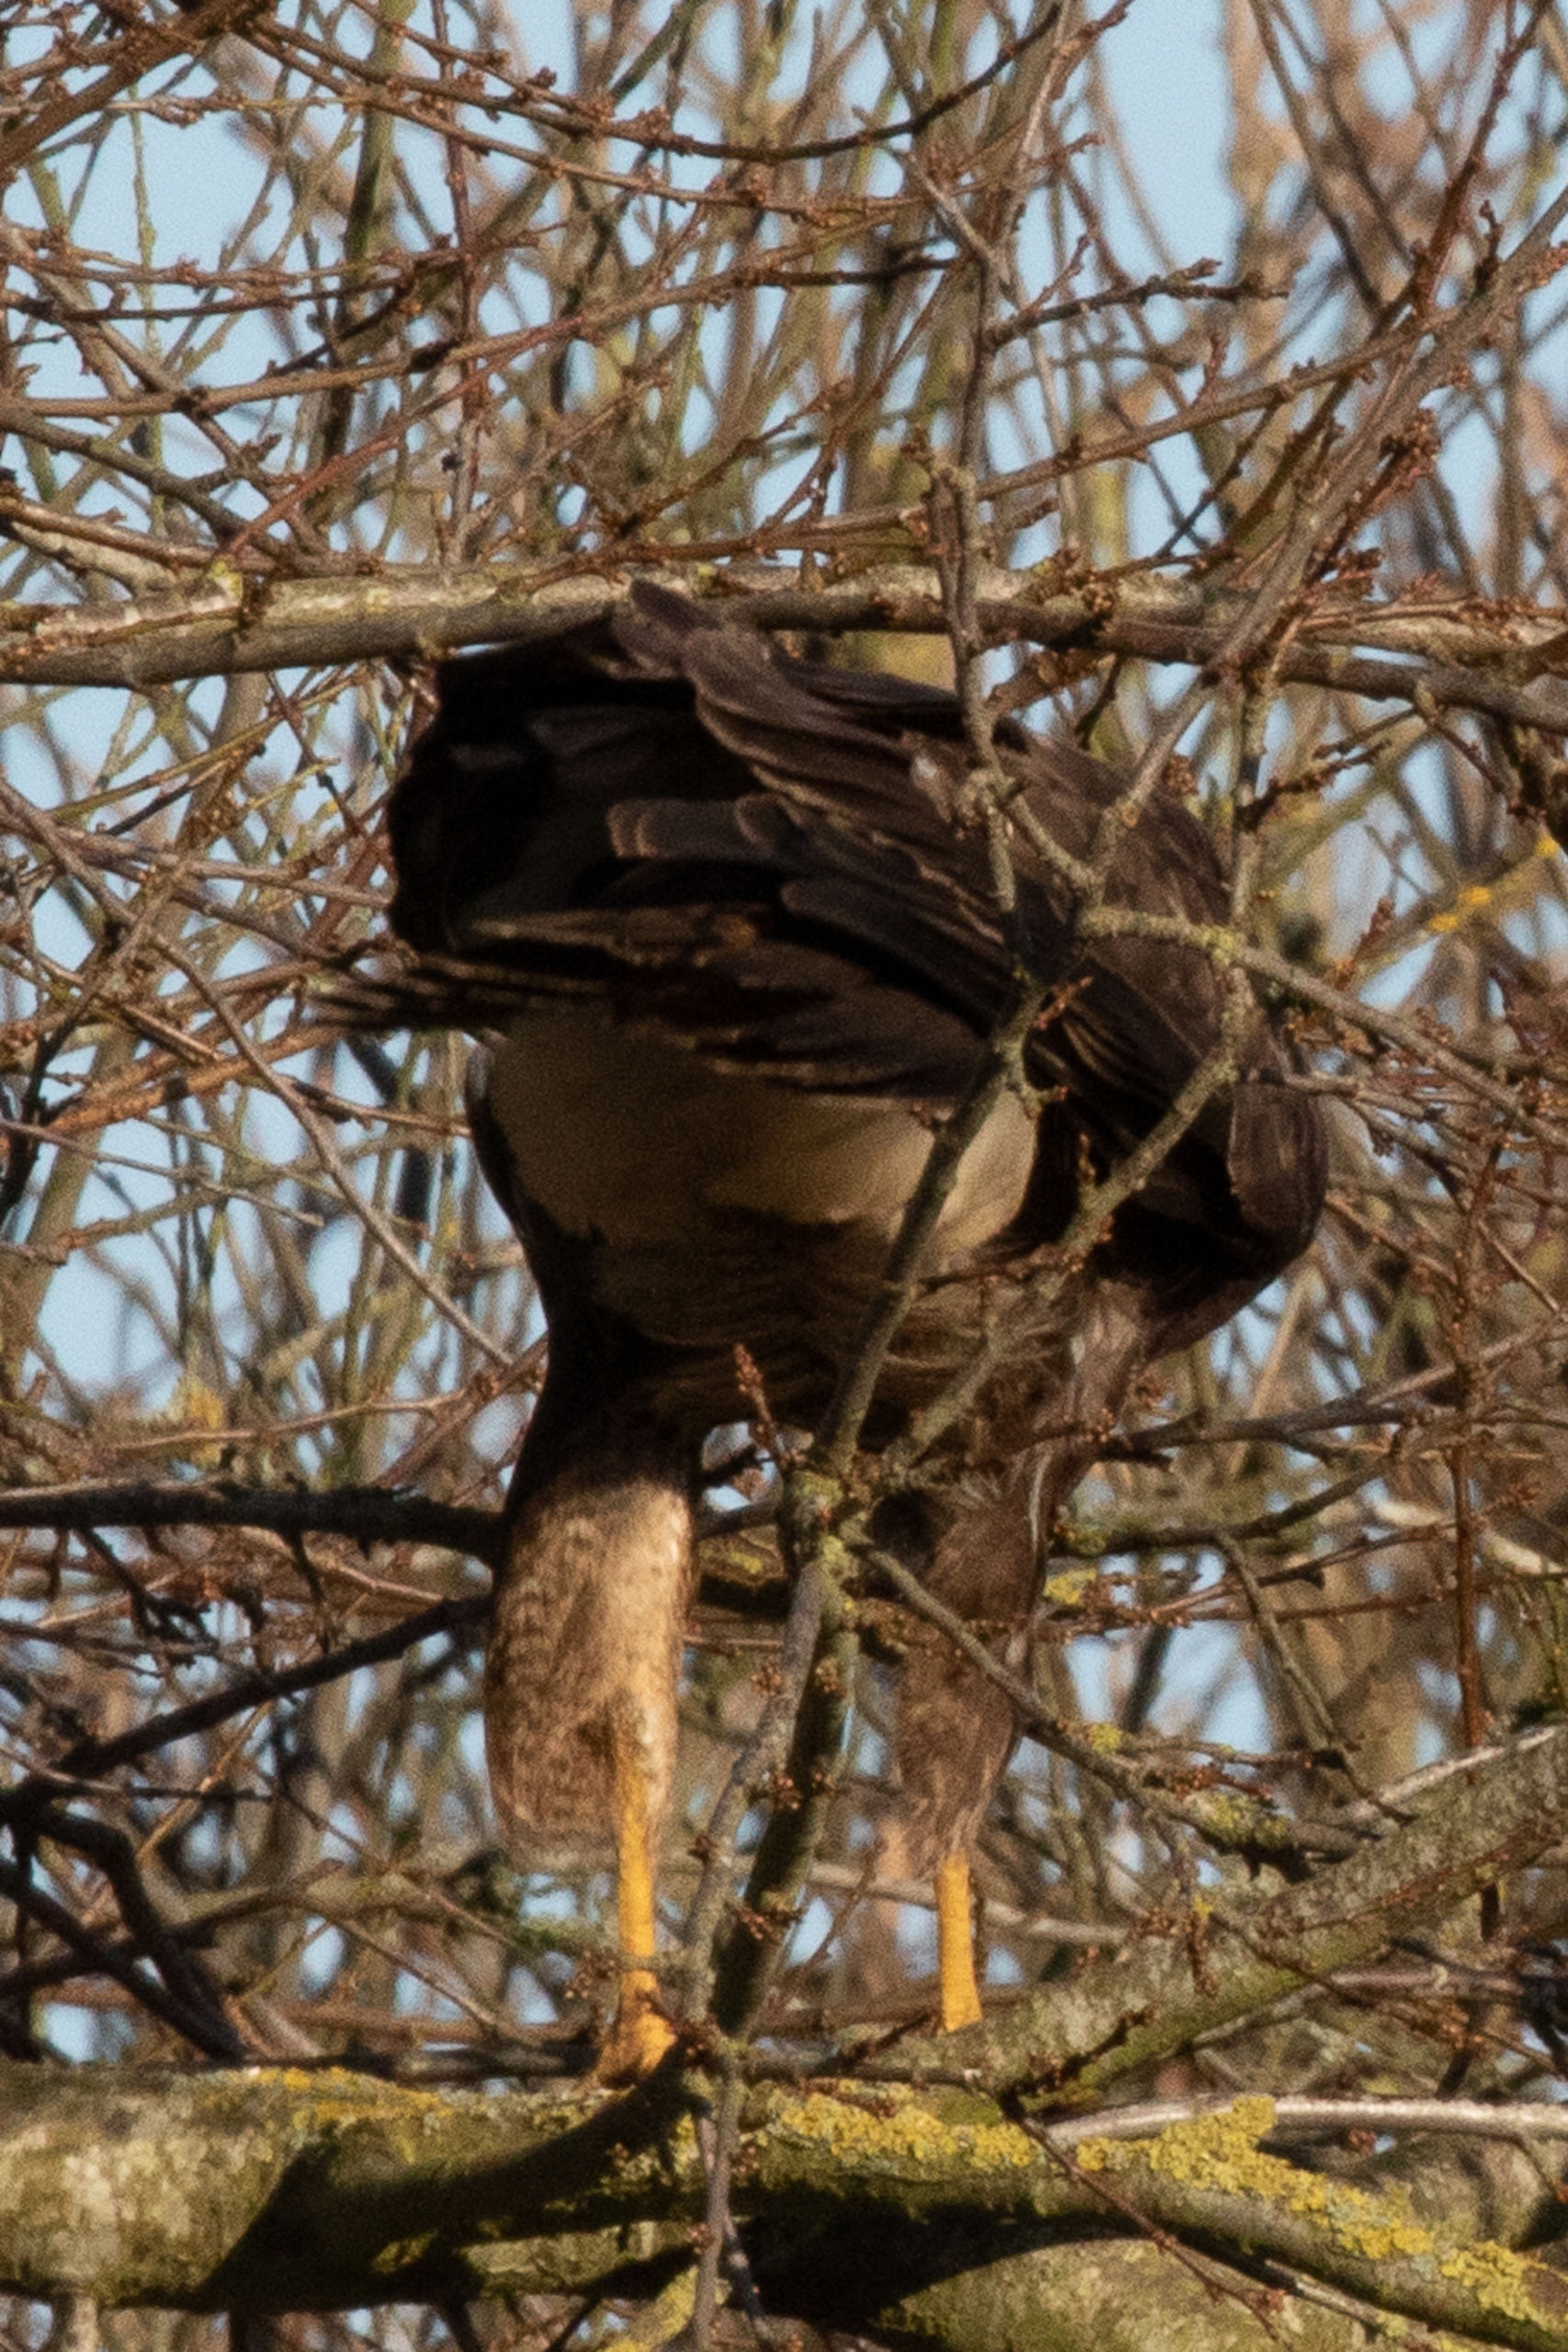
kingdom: Animalia
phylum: Chordata
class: Aves
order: Accipitriformes
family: Accipitridae
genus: Buteo
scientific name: Buteo buteo
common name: Musvåge
